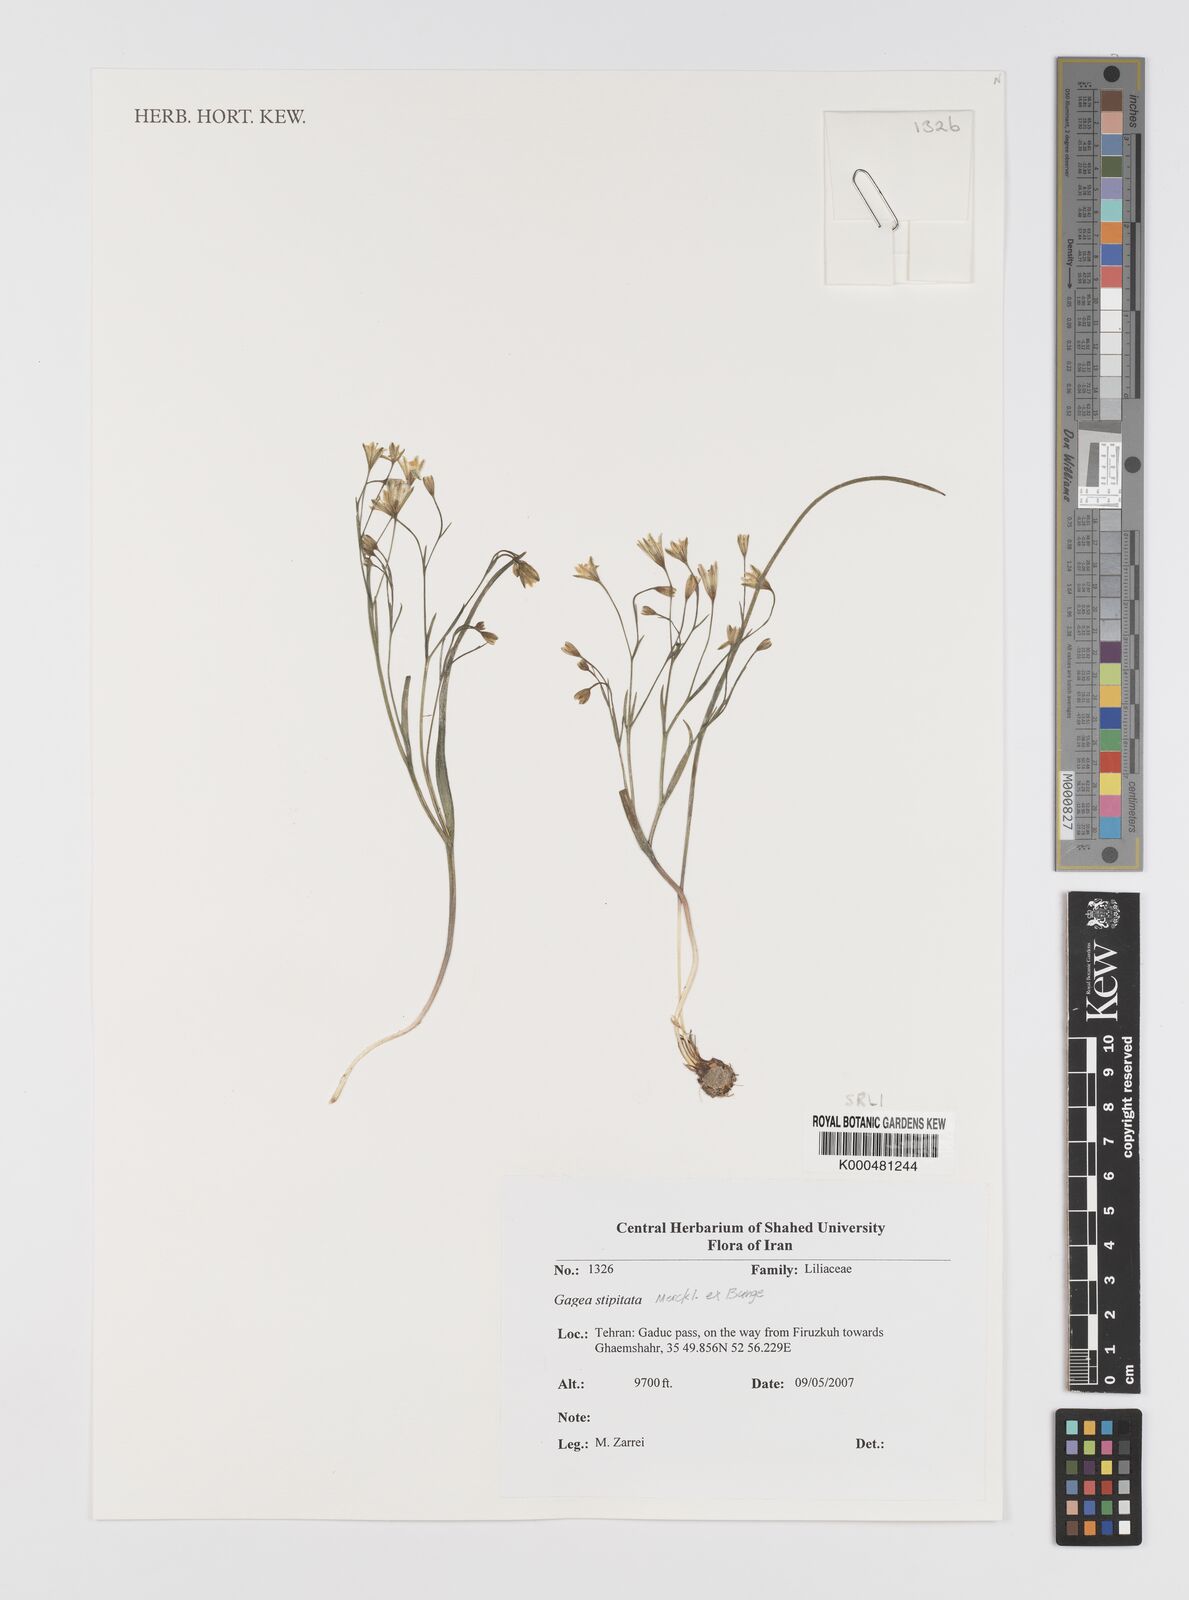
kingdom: Plantae
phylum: Tracheophyta
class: Liliopsida
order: Liliales
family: Liliaceae
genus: Gagea
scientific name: Gagea kunawurensis
